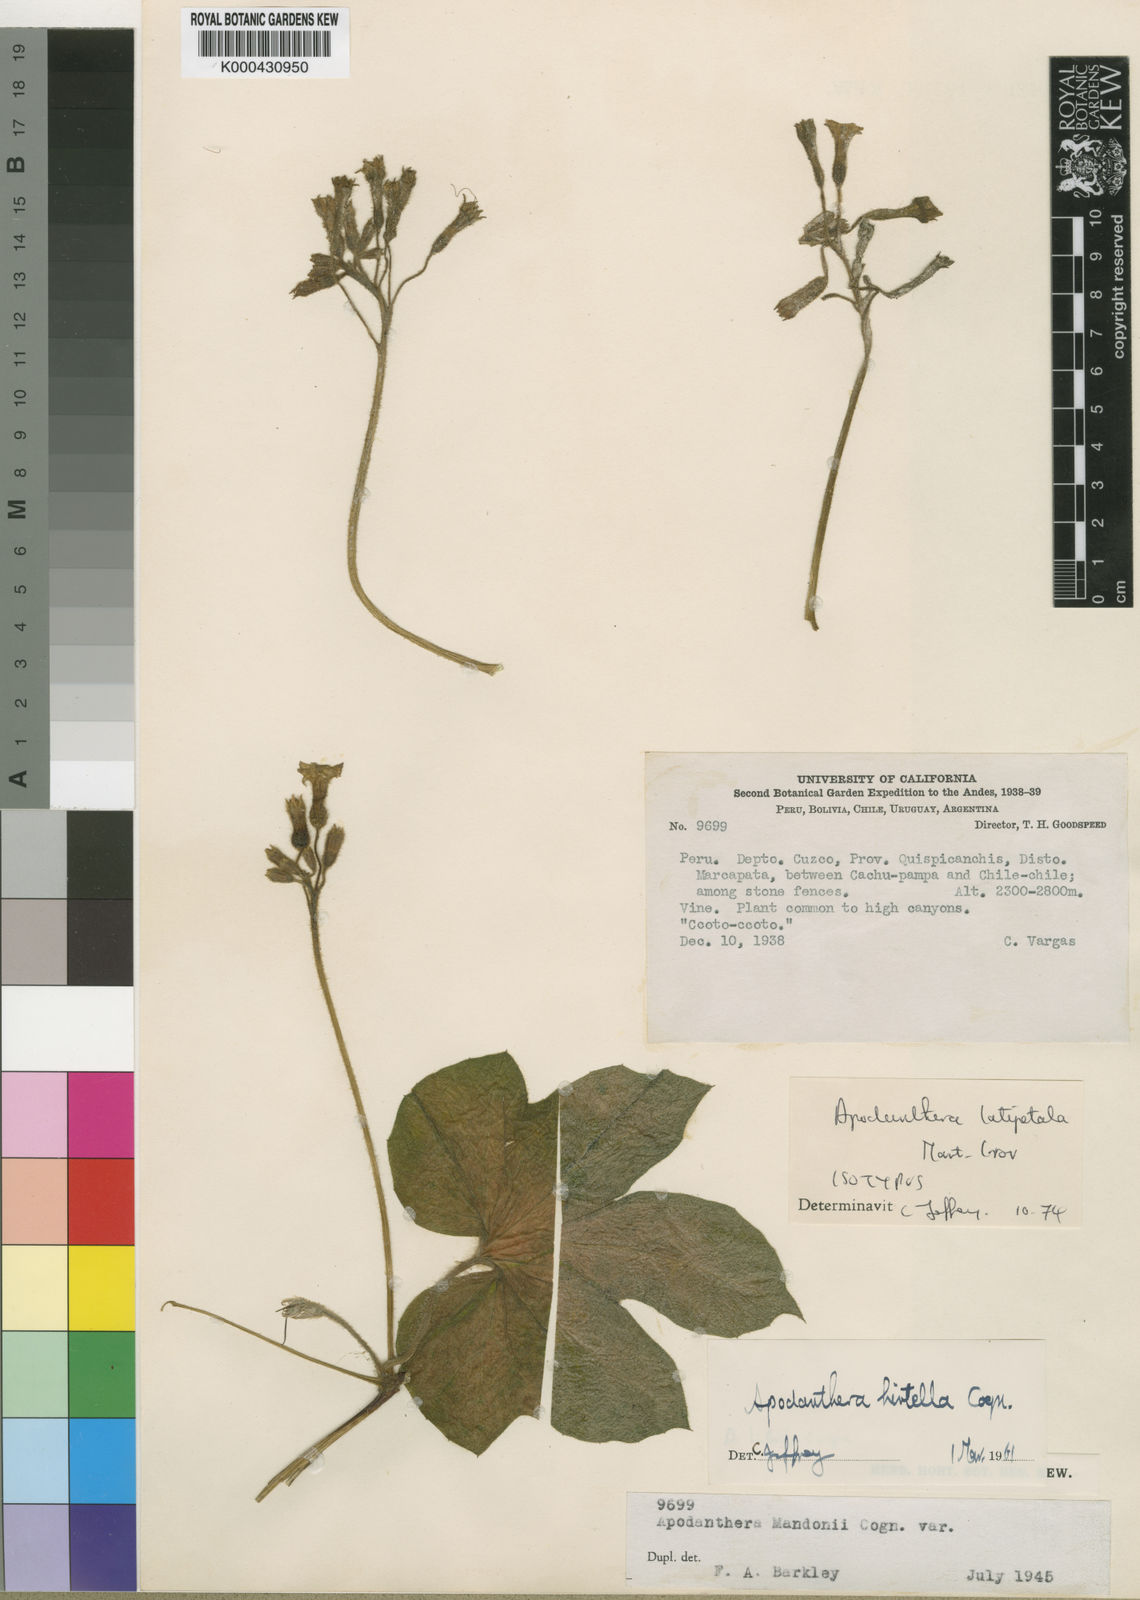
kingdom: Plantae
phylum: Tracheophyta
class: Magnoliopsida
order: Cucurbitales
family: Cucurbitaceae
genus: Apodanthera
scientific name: Apodanthera mathewsii
